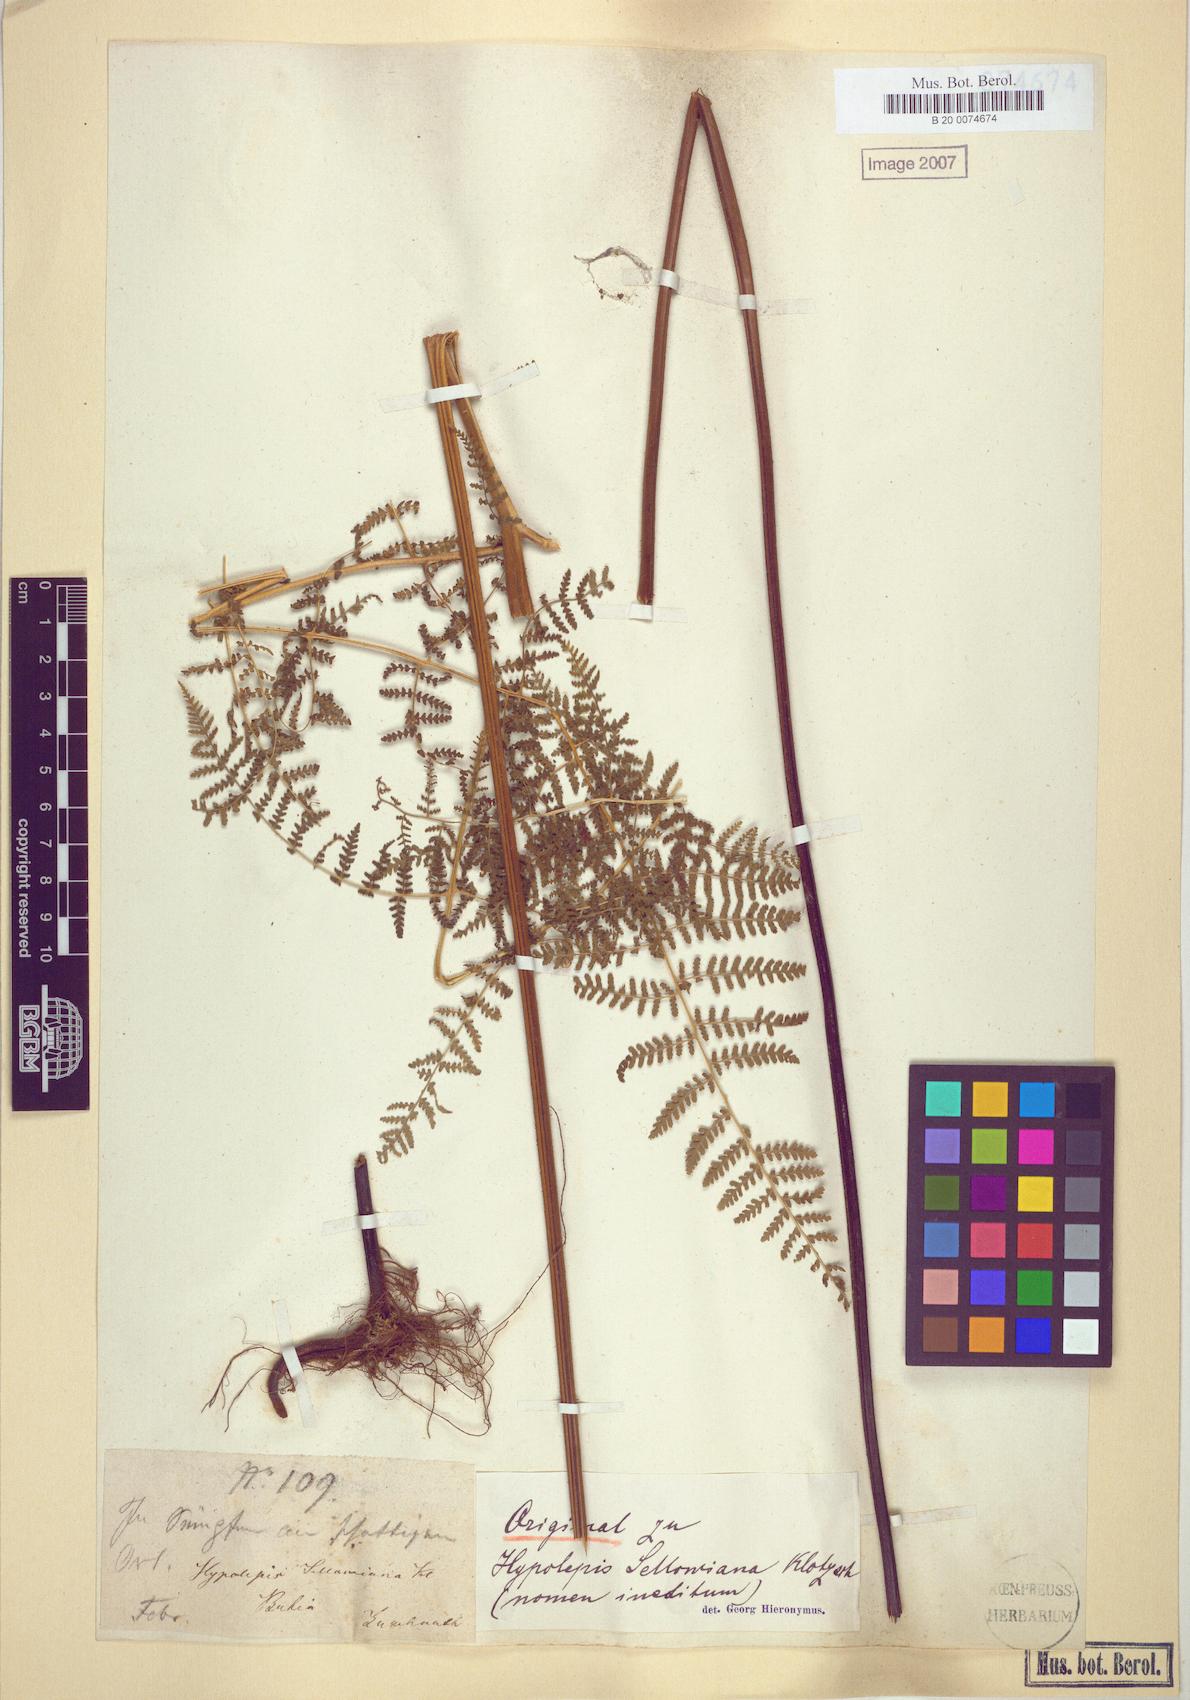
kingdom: Plantae
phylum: Tracheophyta
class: Polypodiopsida
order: Polypodiales
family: Dennstaedtiaceae
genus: Hypolepis
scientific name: Hypolepis rigescens
